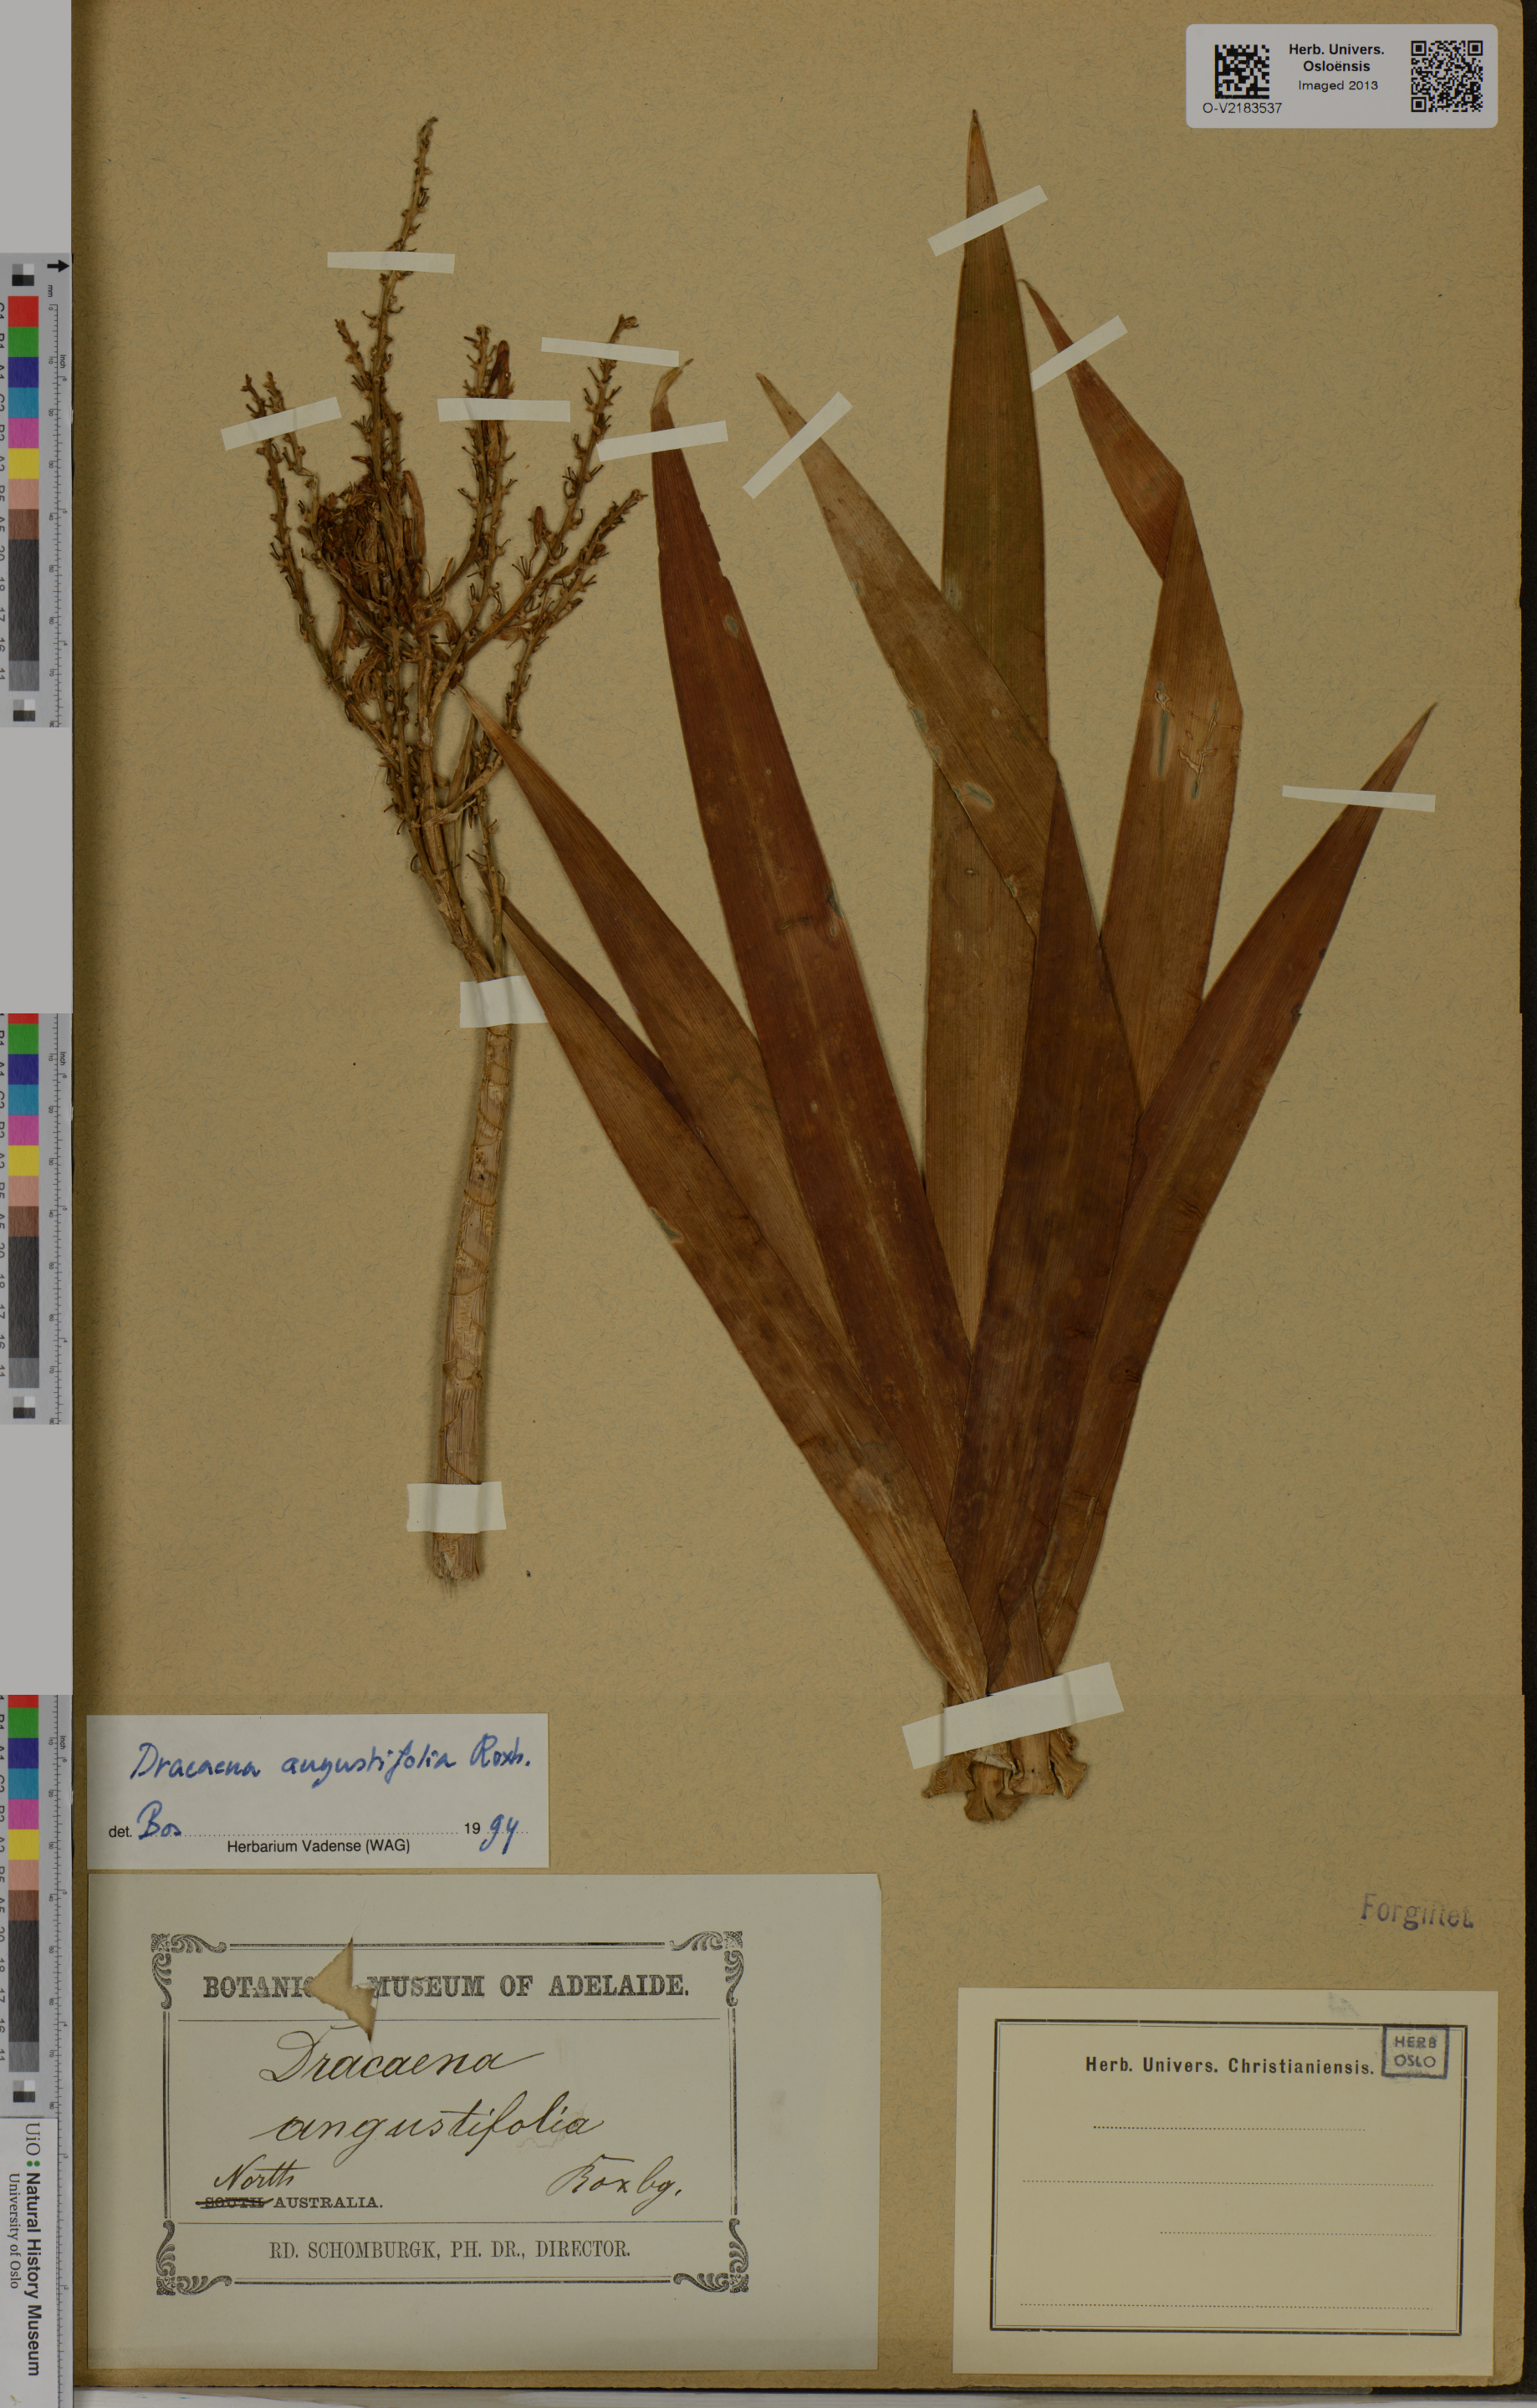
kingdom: Plantae
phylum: Tracheophyta
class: Liliopsida
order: Asparagales
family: Asparagaceae
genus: Dracaena
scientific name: Dracaena angustifolia
